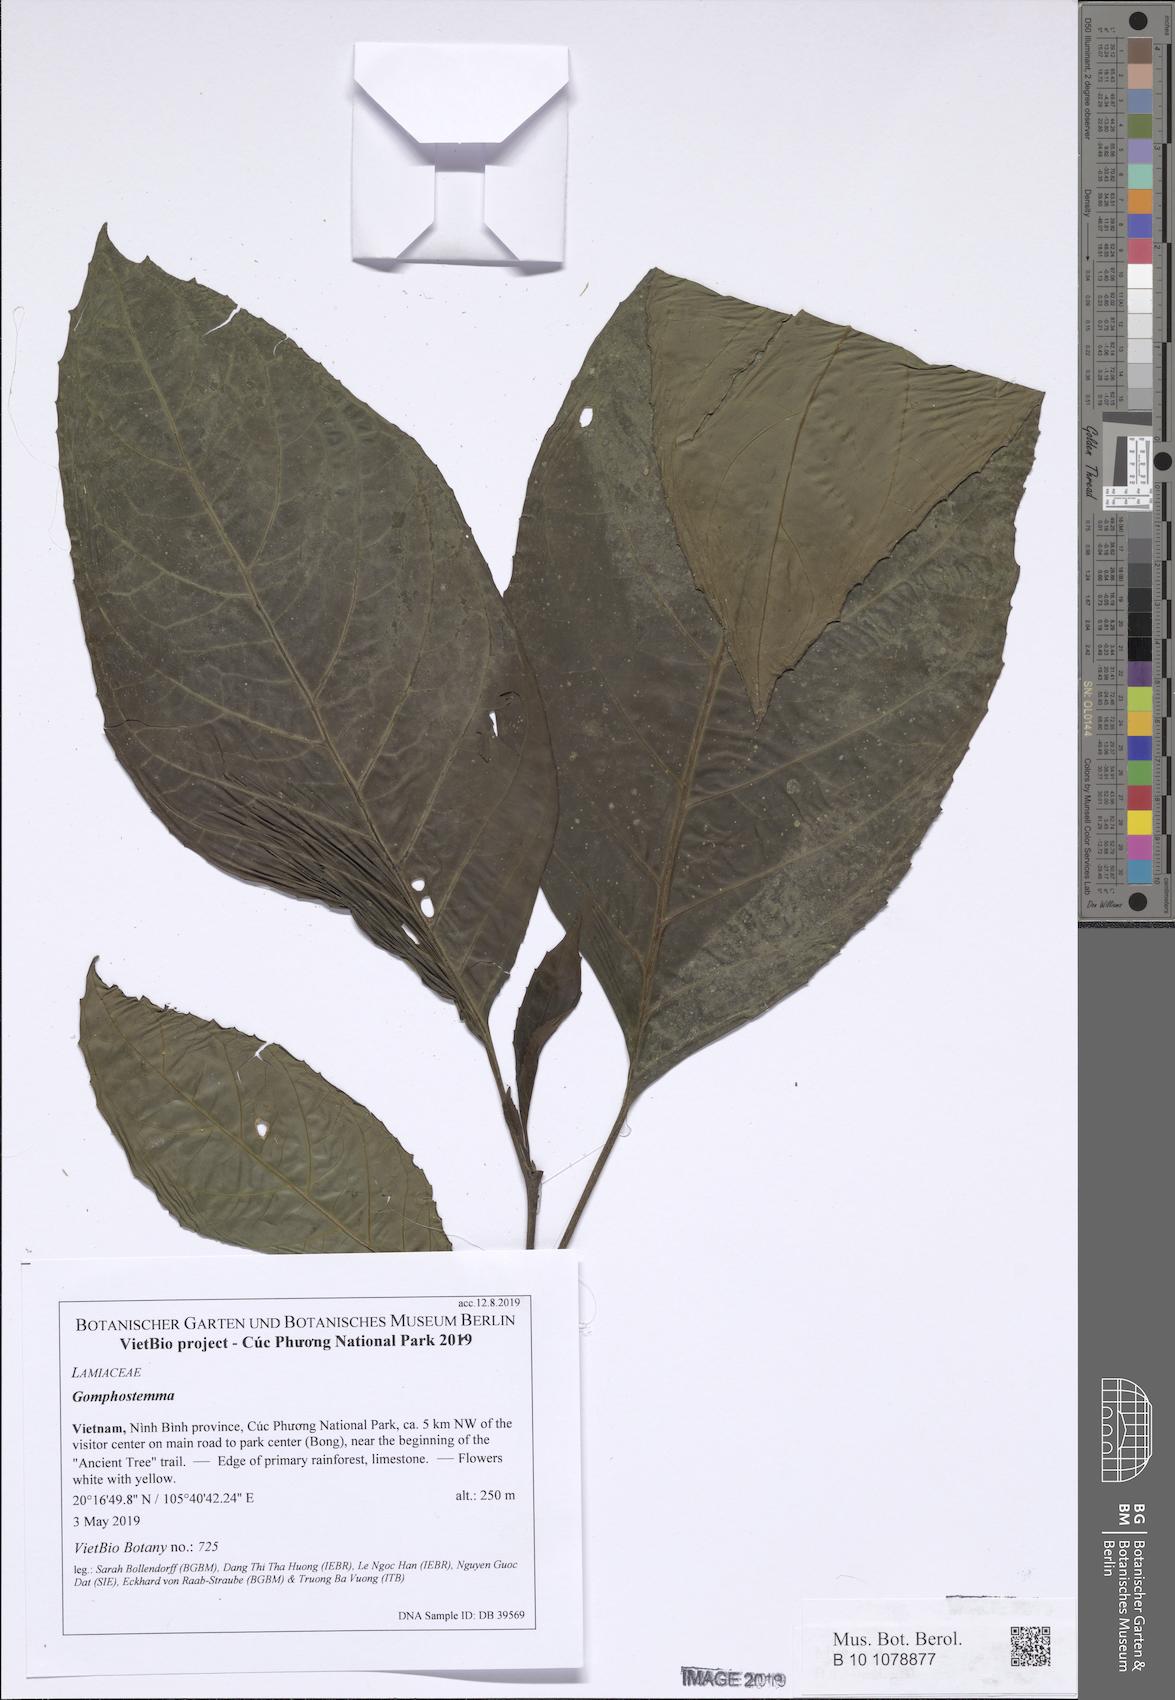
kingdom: Plantae
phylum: Tracheophyta
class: Magnoliopsida
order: Lamiales
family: Lamiaceae
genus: Gomphostemma
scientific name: Gomphostemma
